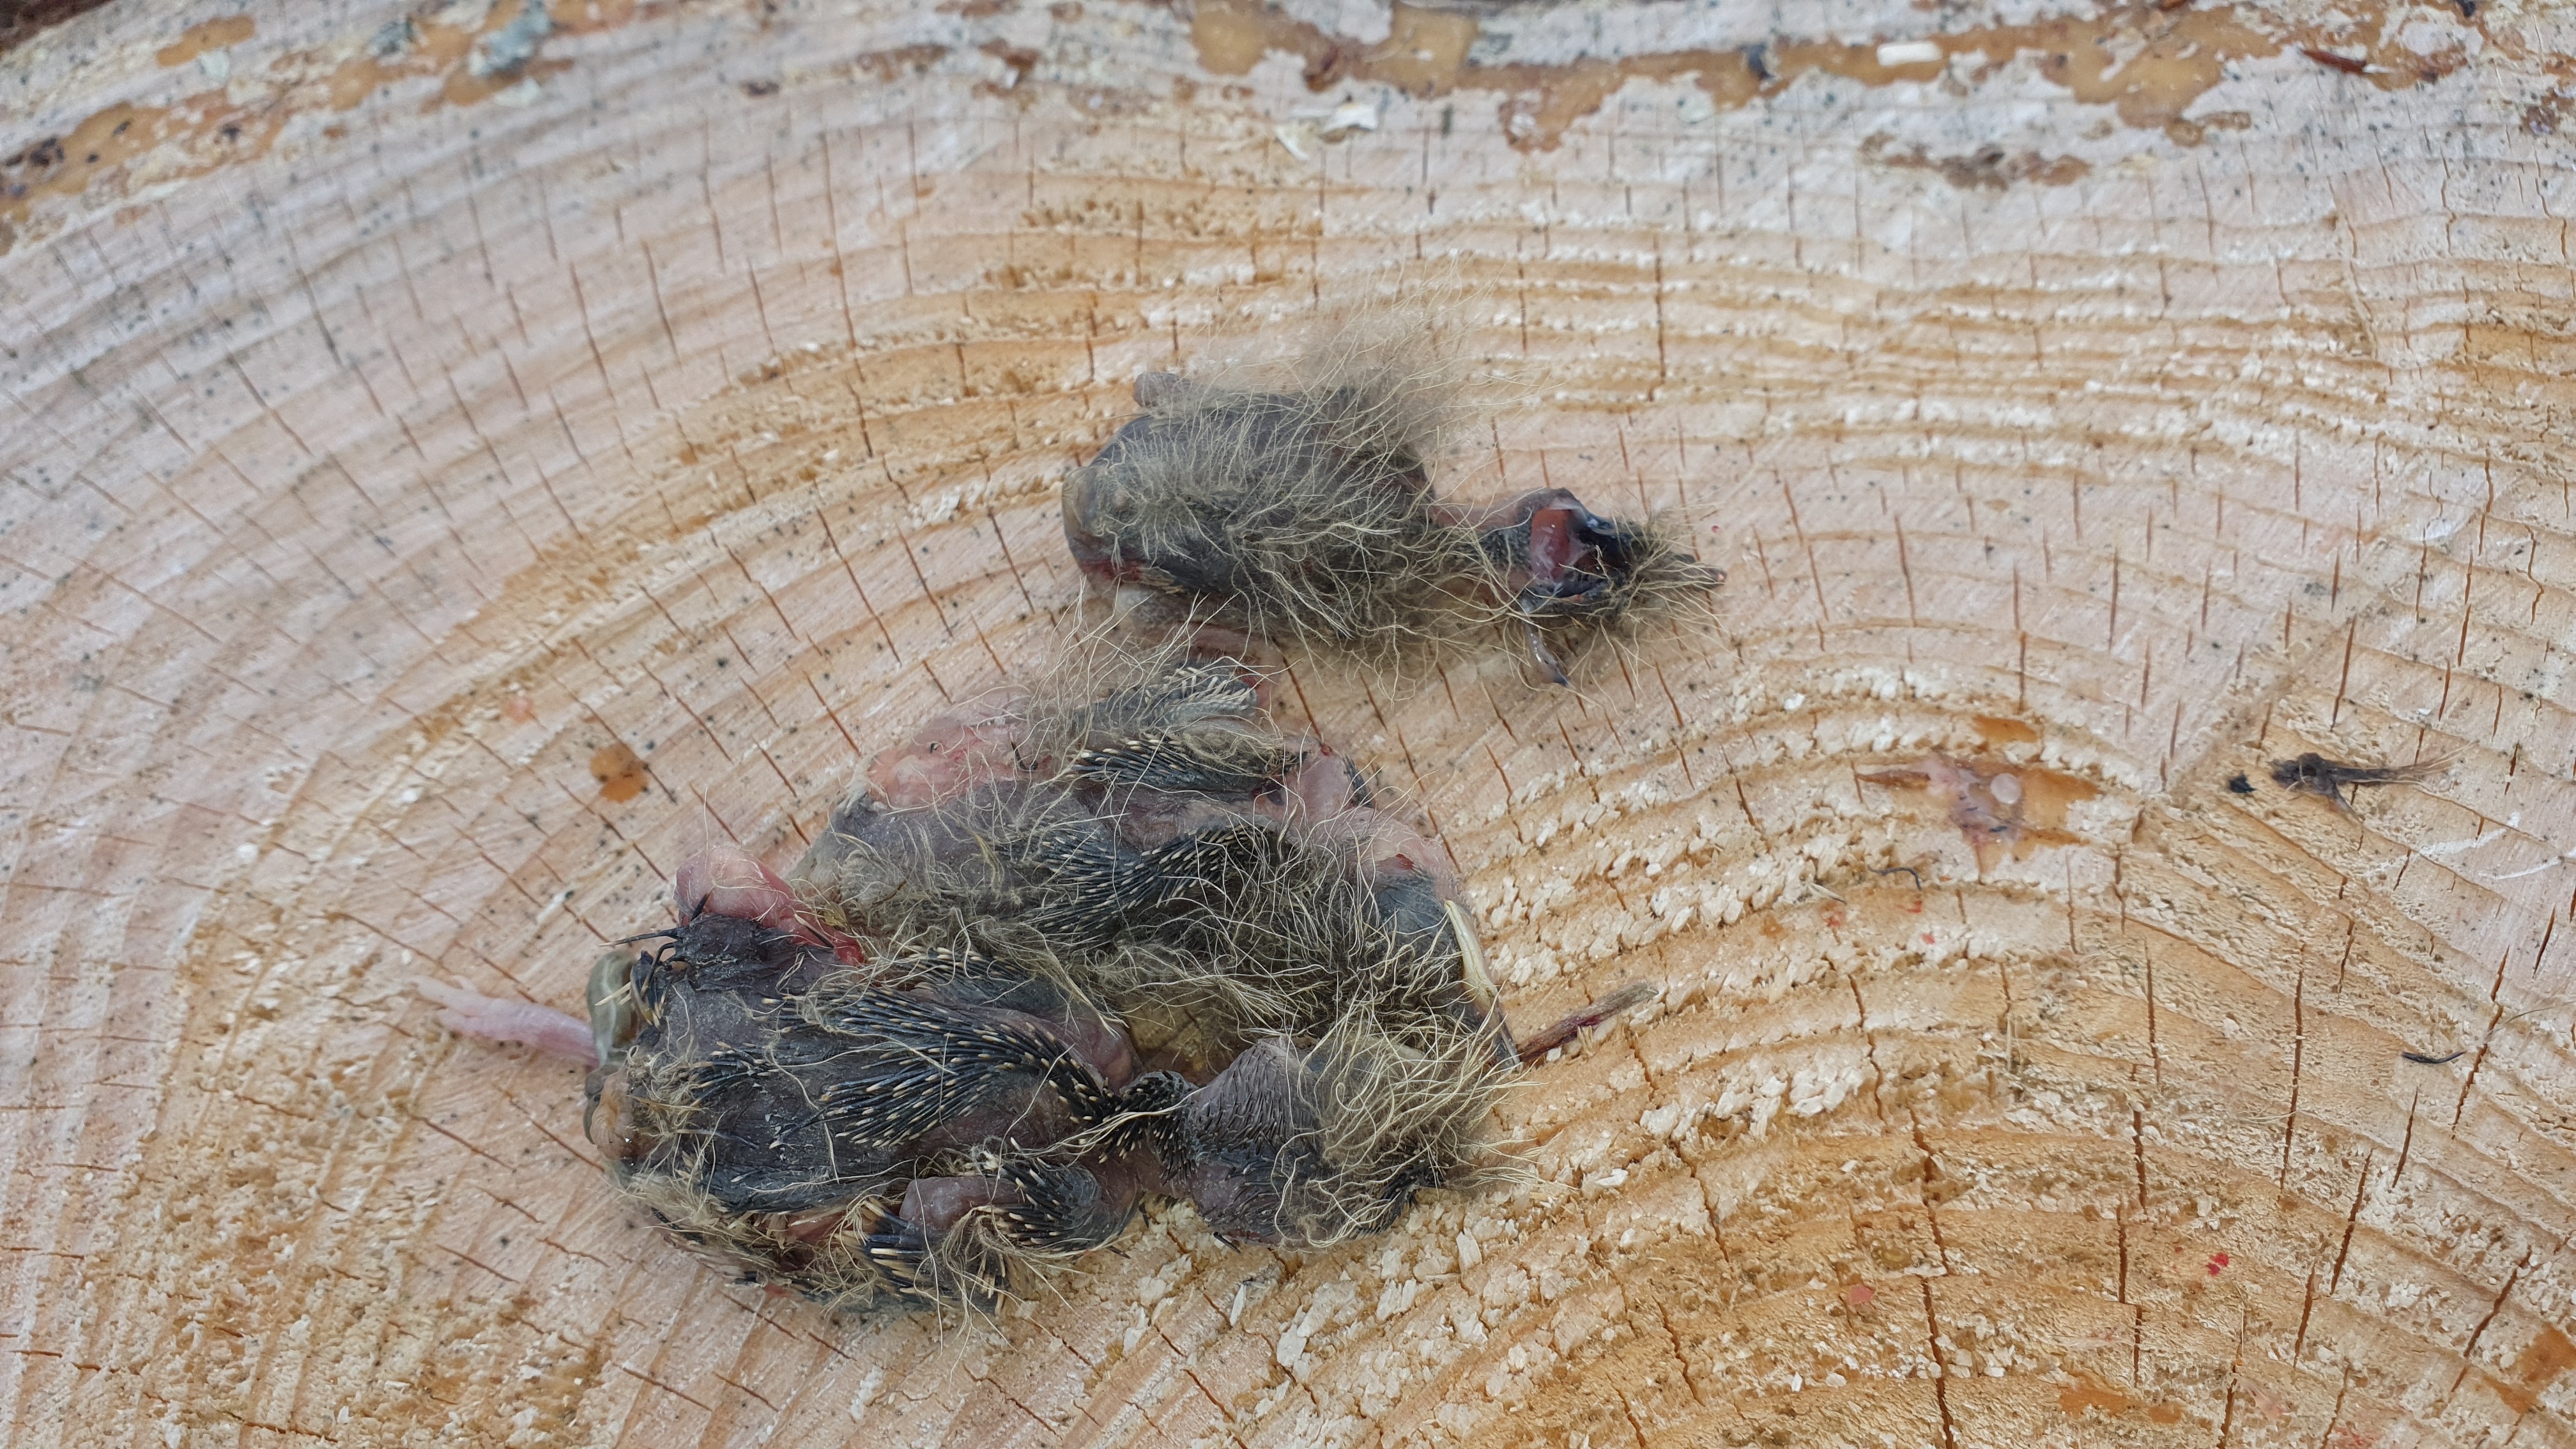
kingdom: Animalia
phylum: Chordata
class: Aves
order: Passeriformes
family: Alaudidae
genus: Alauda
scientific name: Alauda arvensis
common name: Eurasian skylark
